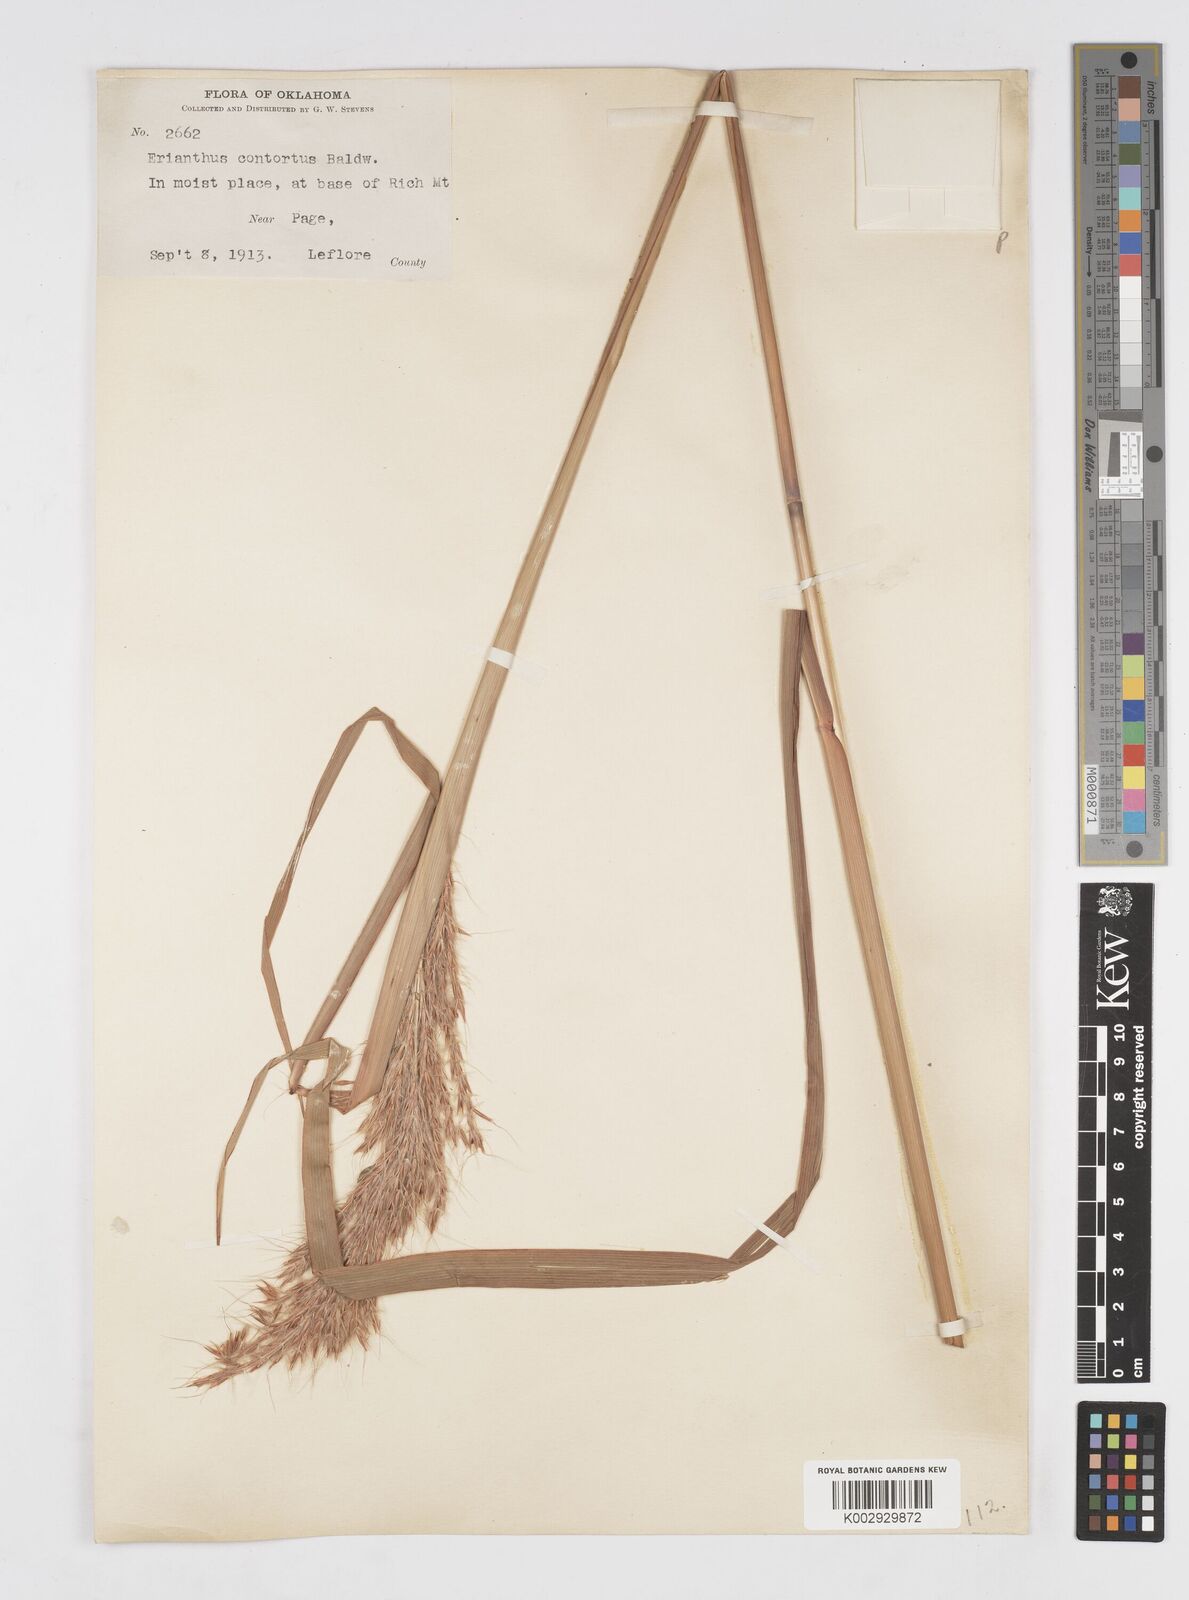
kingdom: Plantae
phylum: Tracheophyta
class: Liliopsida
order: Poales
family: Poaceae
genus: Erianthus
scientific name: Erianthus contortus
